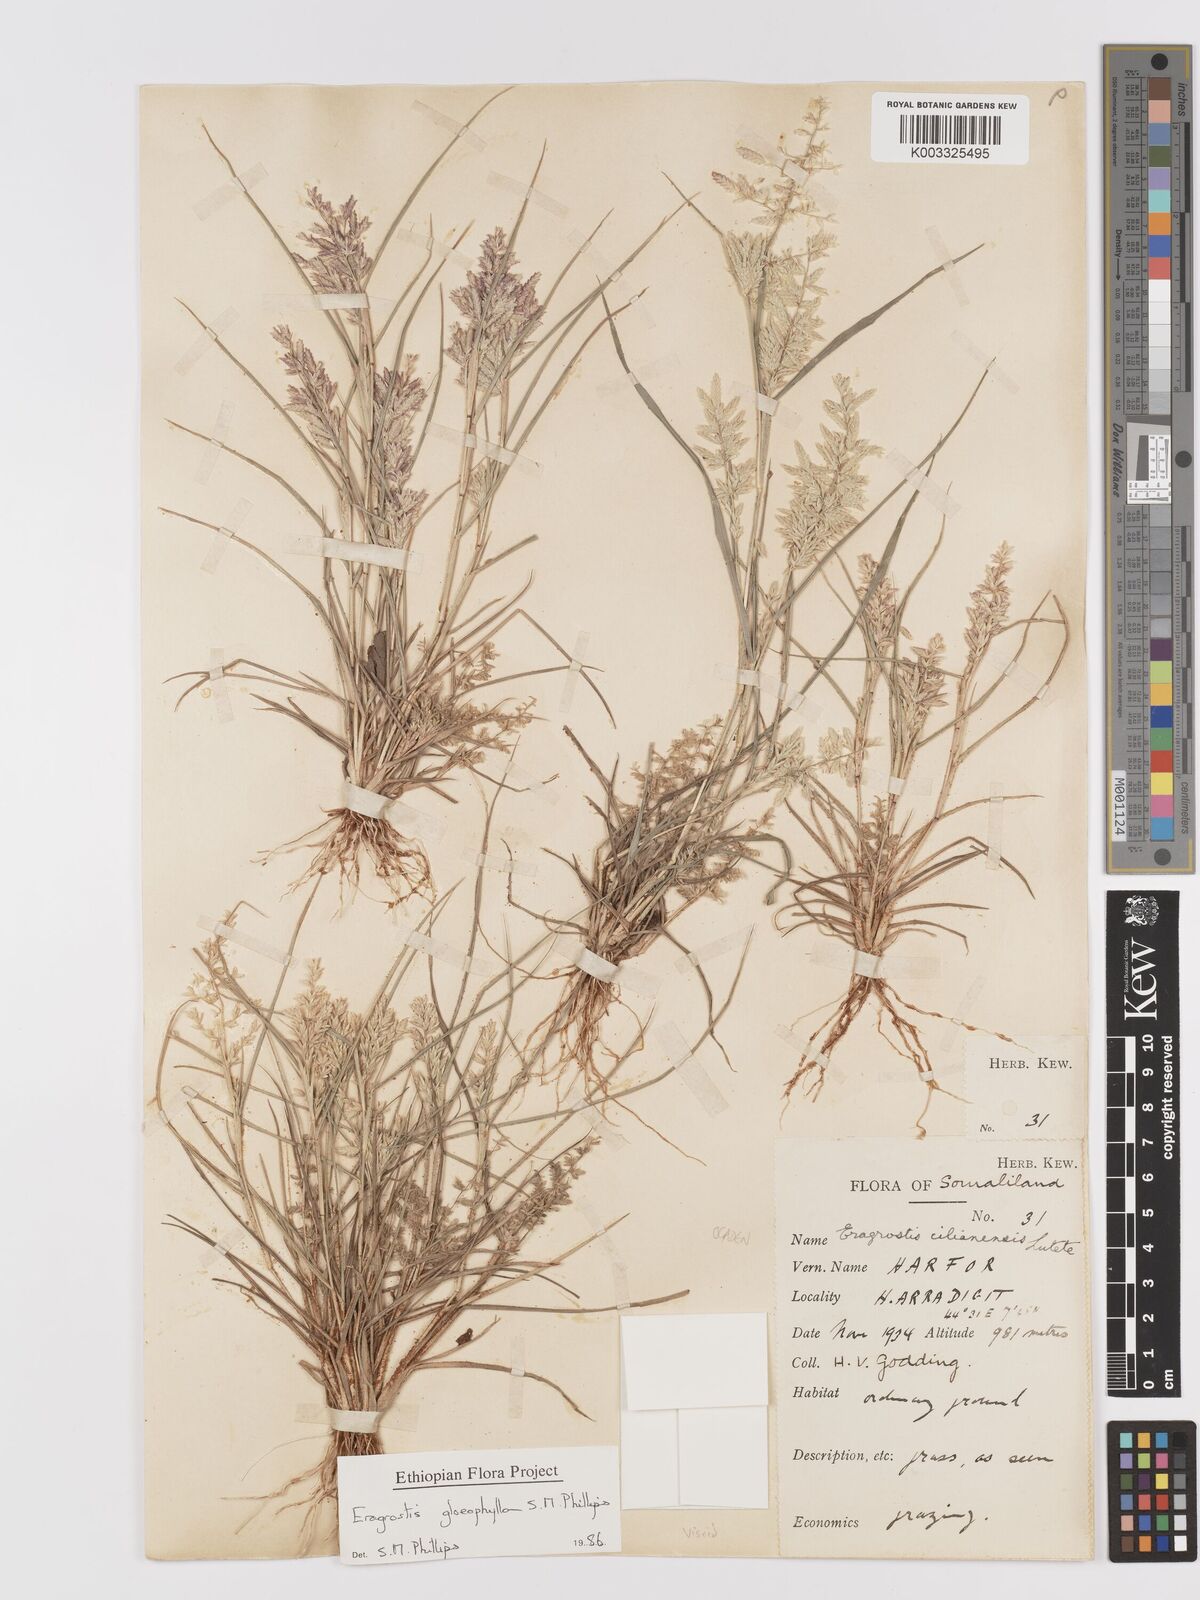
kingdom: Plantae
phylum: Tracheophyta
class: Liliopsida
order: Poales
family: Poaceae
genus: Eragrostis
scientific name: Eragrostis gloeophylla
